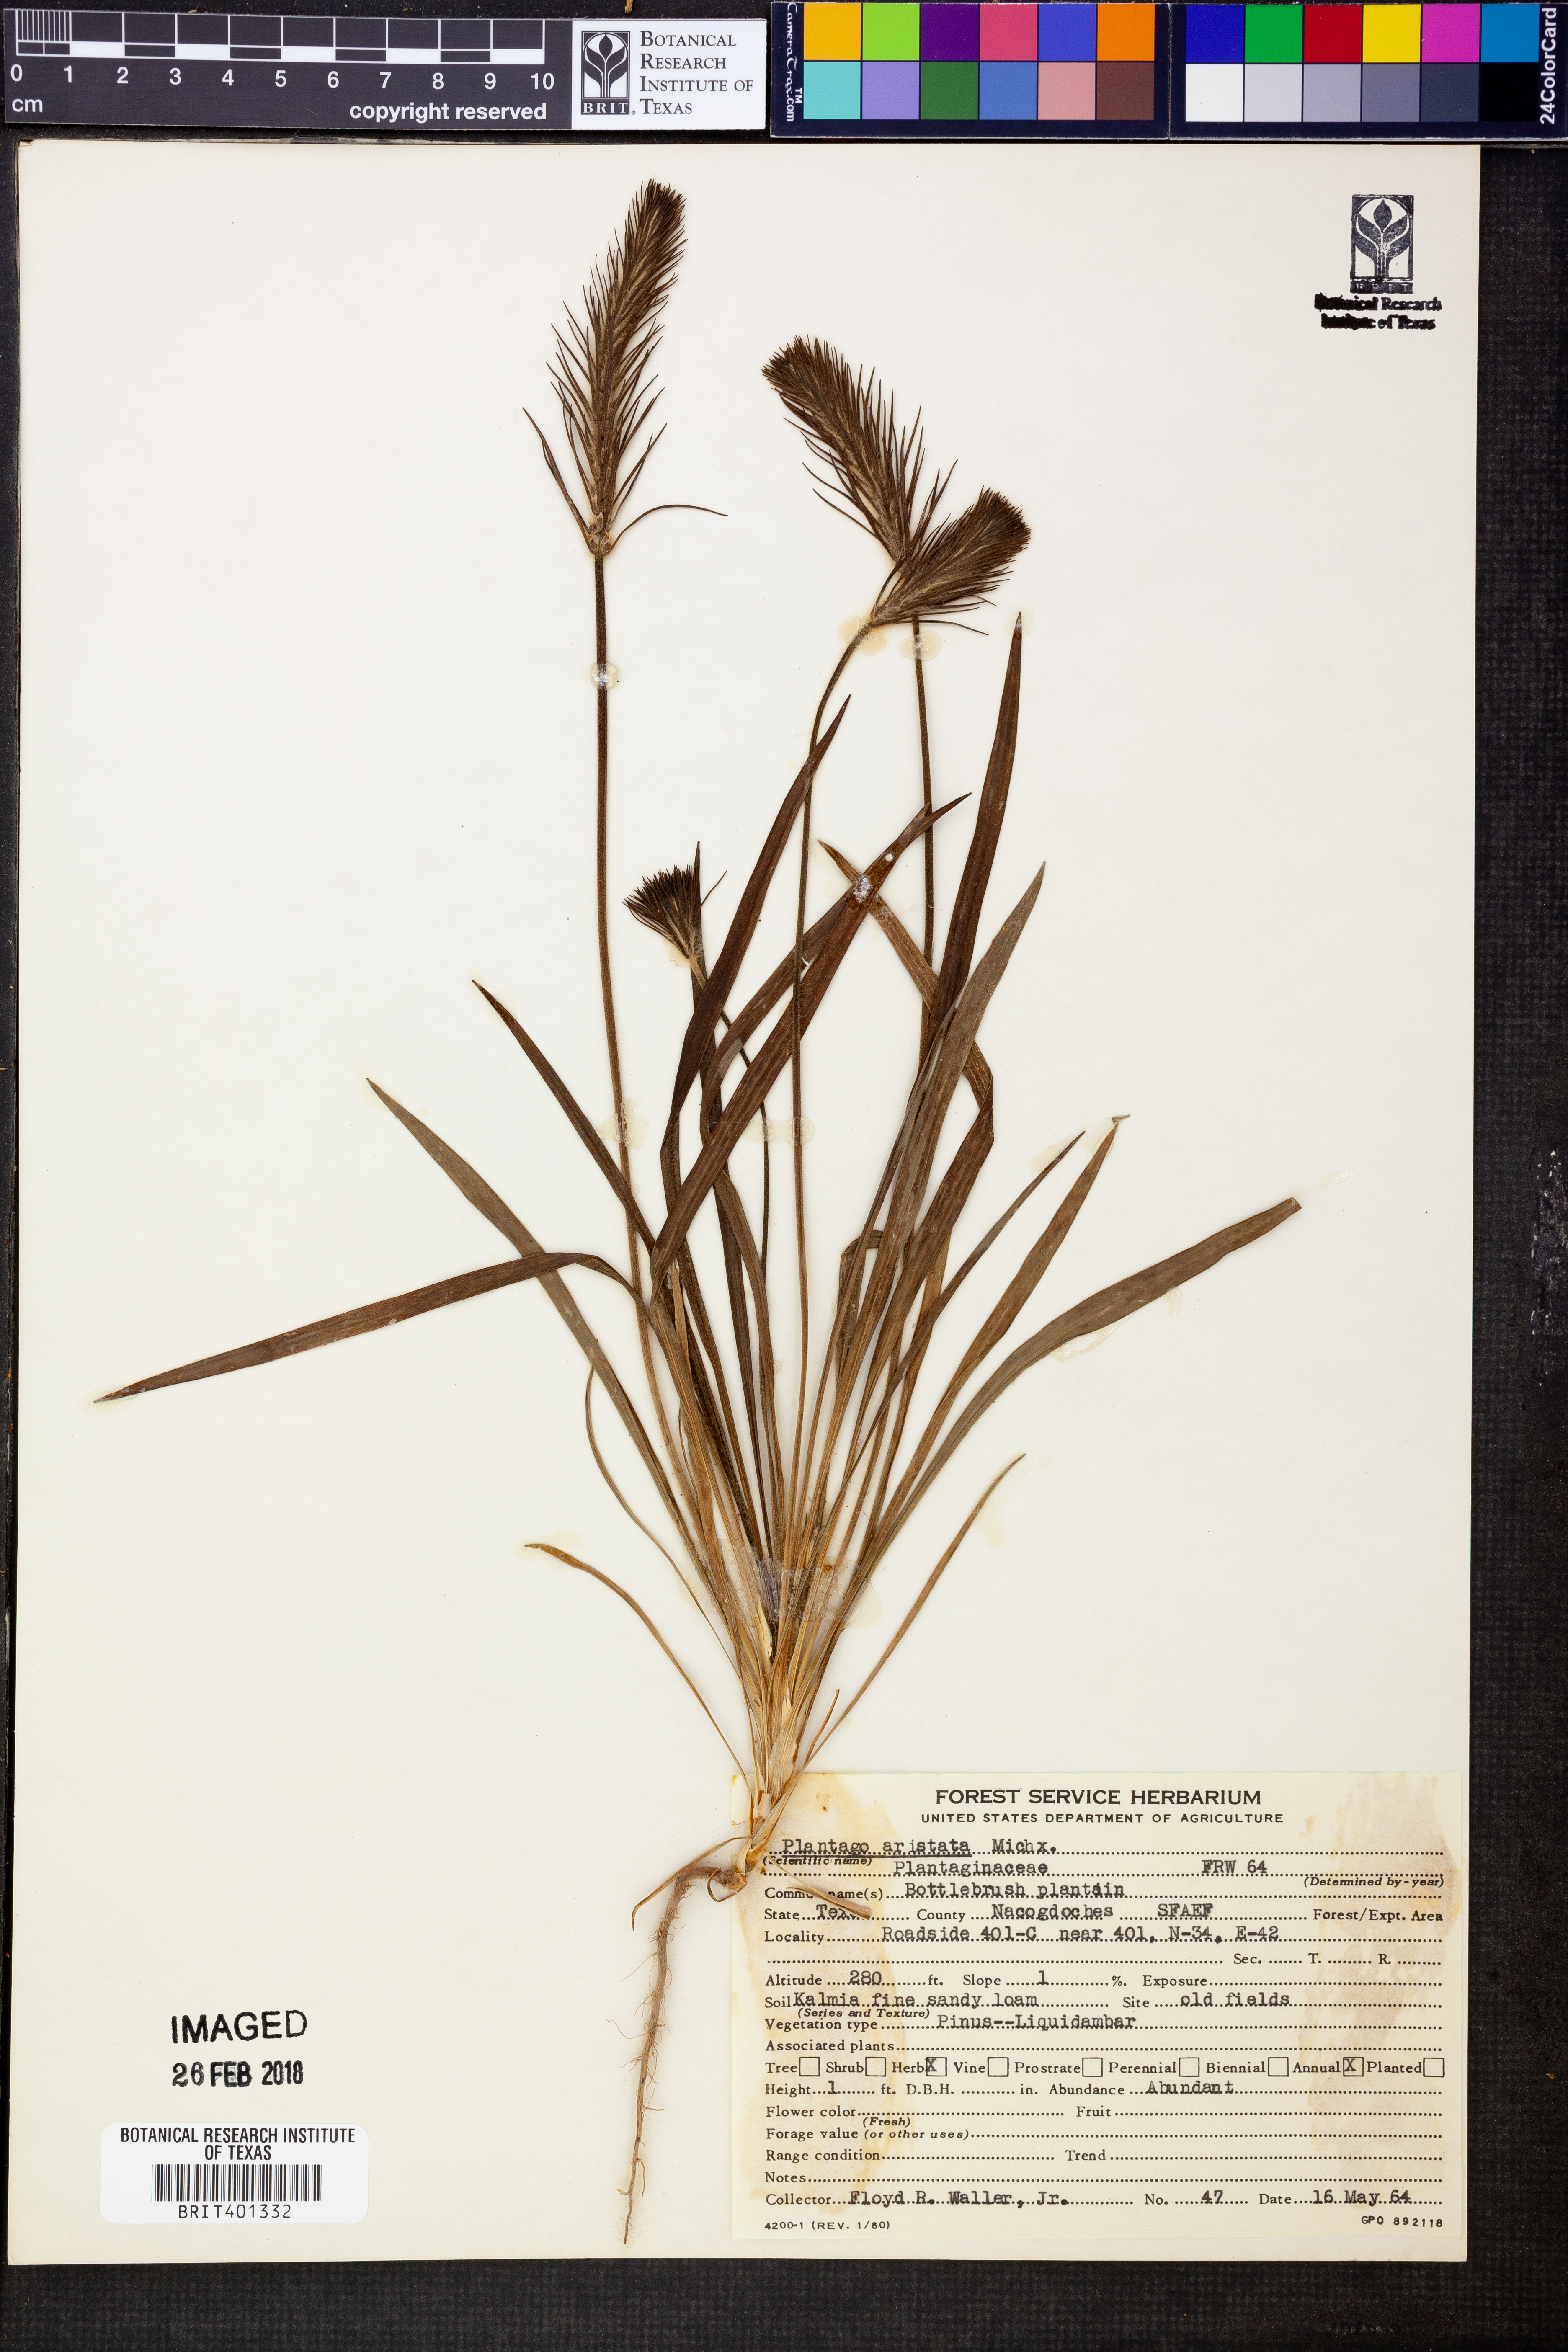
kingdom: Plantae
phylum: Tracheophyta
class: Magnoliopsida
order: Lamiales
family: Plantaginaceae
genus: Plantago
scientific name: Plantago aristata
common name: Bracted plantain
